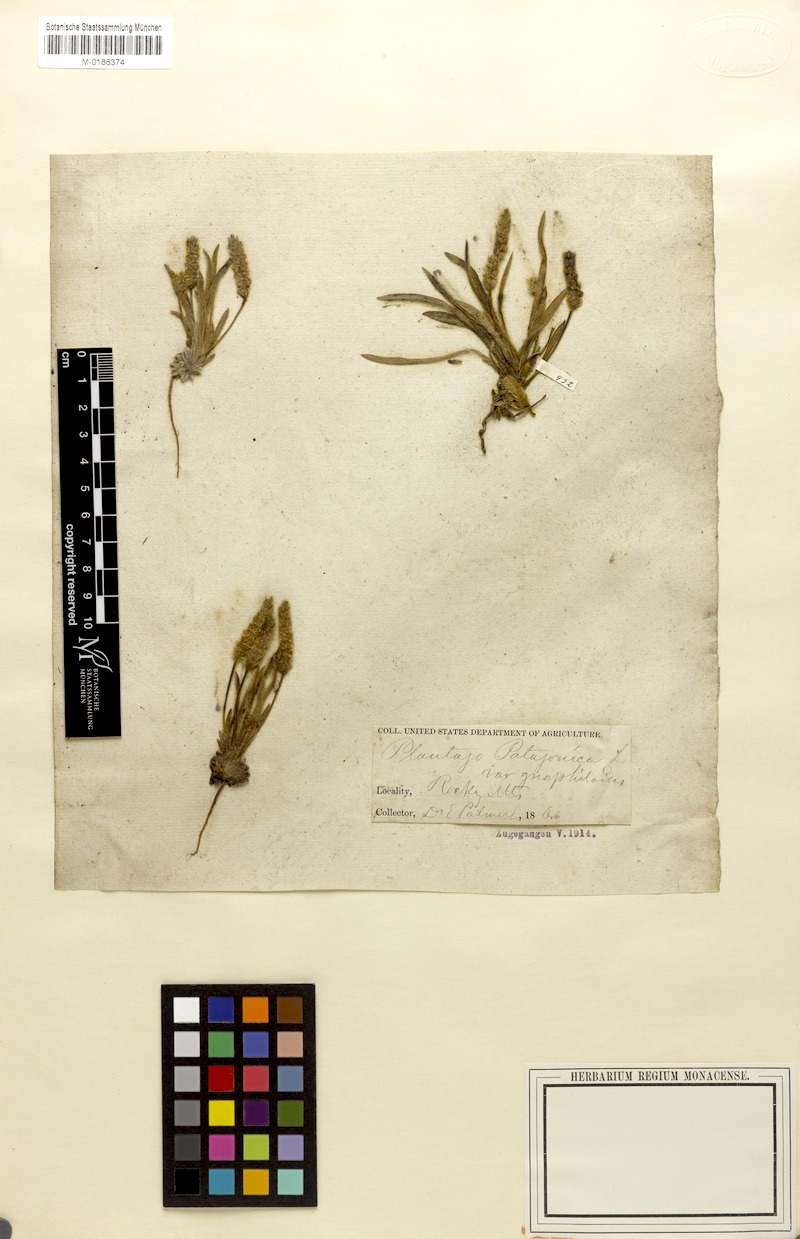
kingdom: Plantae
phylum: Tracheophyta
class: Magnoliopsida
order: Lamiales
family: Plantaginaceae
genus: Plantago
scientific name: Plantago patagonica
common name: Patagonia indian-wheat
